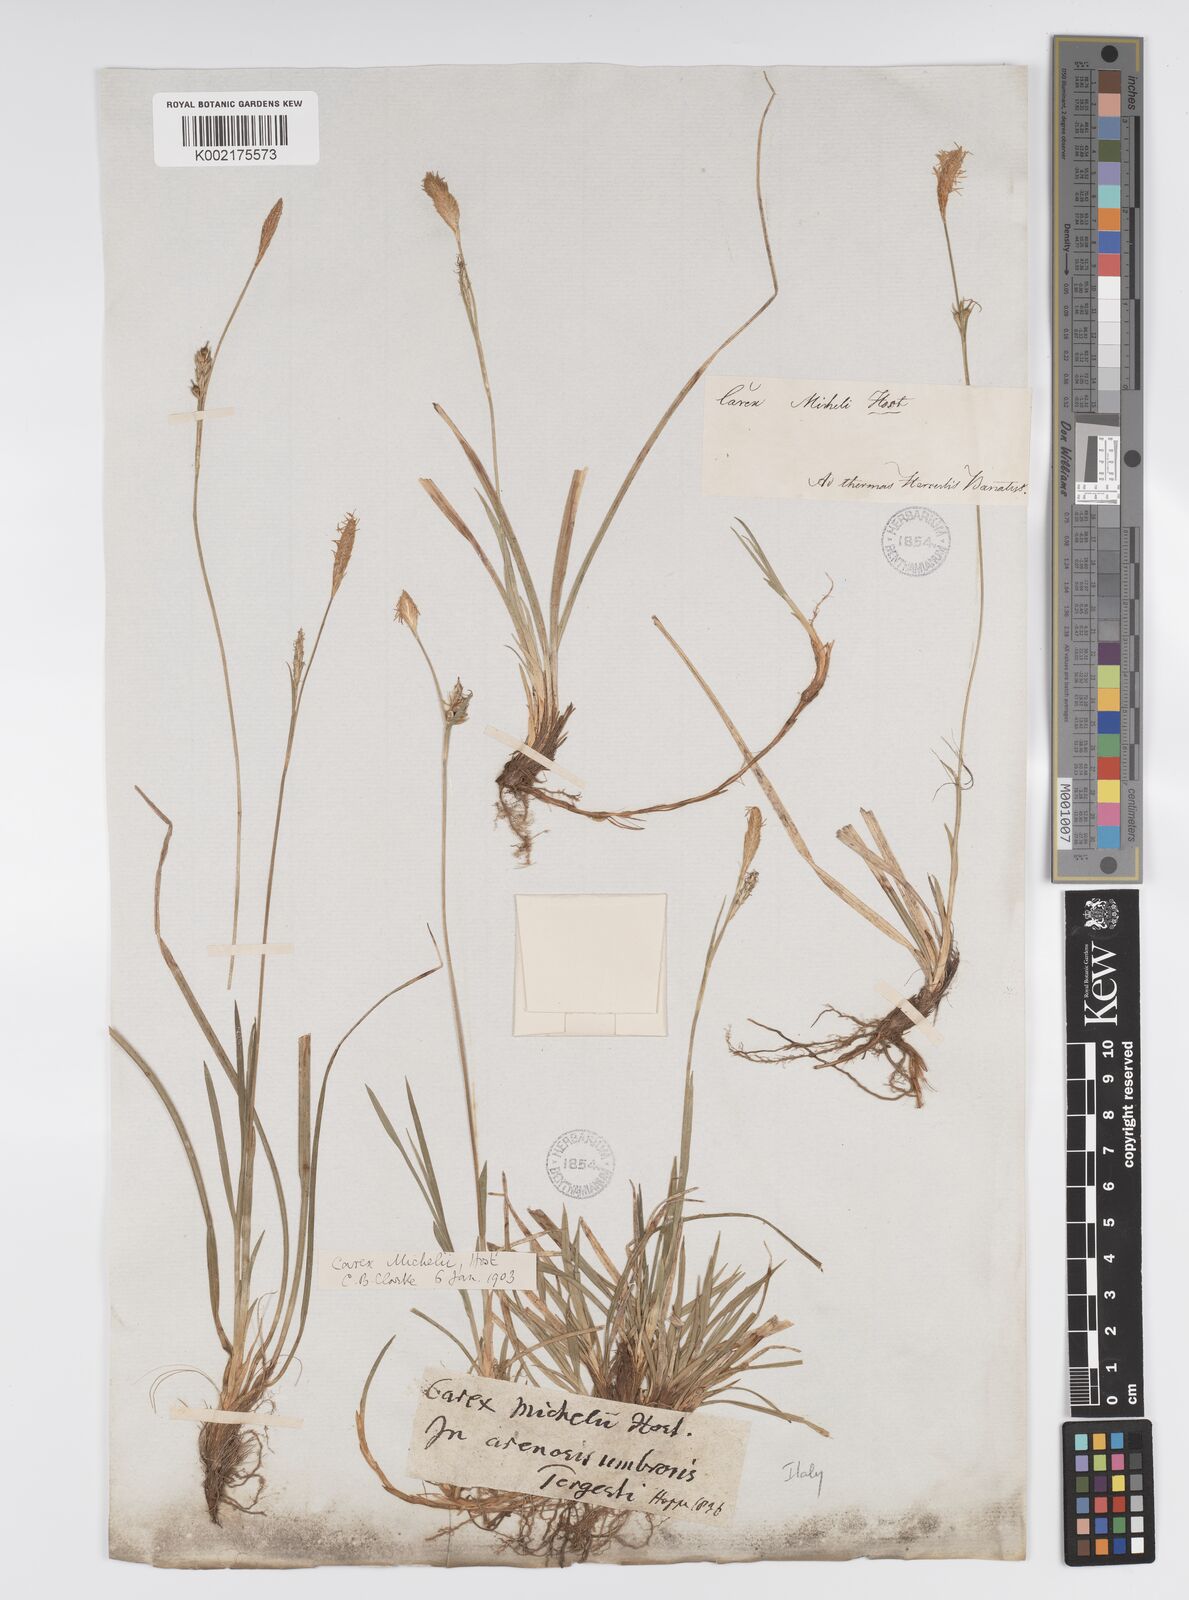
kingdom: Plantae
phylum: Tracheophyta
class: Liliopsida
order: Poales
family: Cyperaceae
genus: Carex
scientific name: Carex michelii
